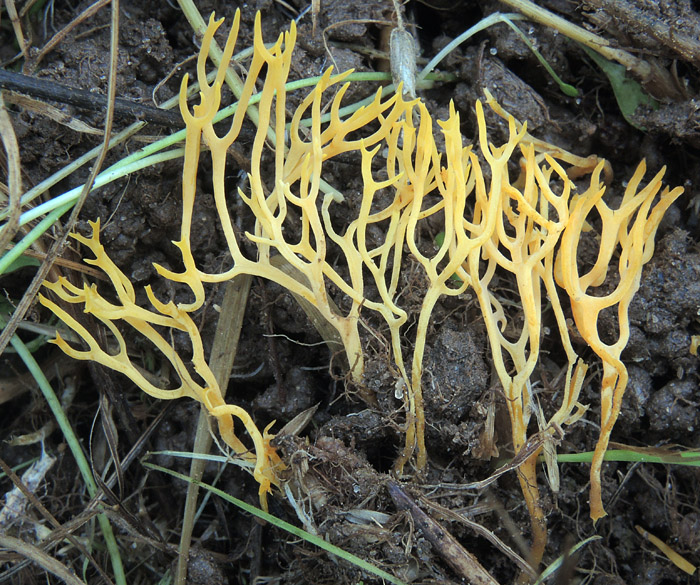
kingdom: Fungi
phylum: Basidiomycota
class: Agaricomycetes
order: Agaricales
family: Clavariaceae
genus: Ramariopsis
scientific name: Ramariopsis crocea
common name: gylden køllesvamp
